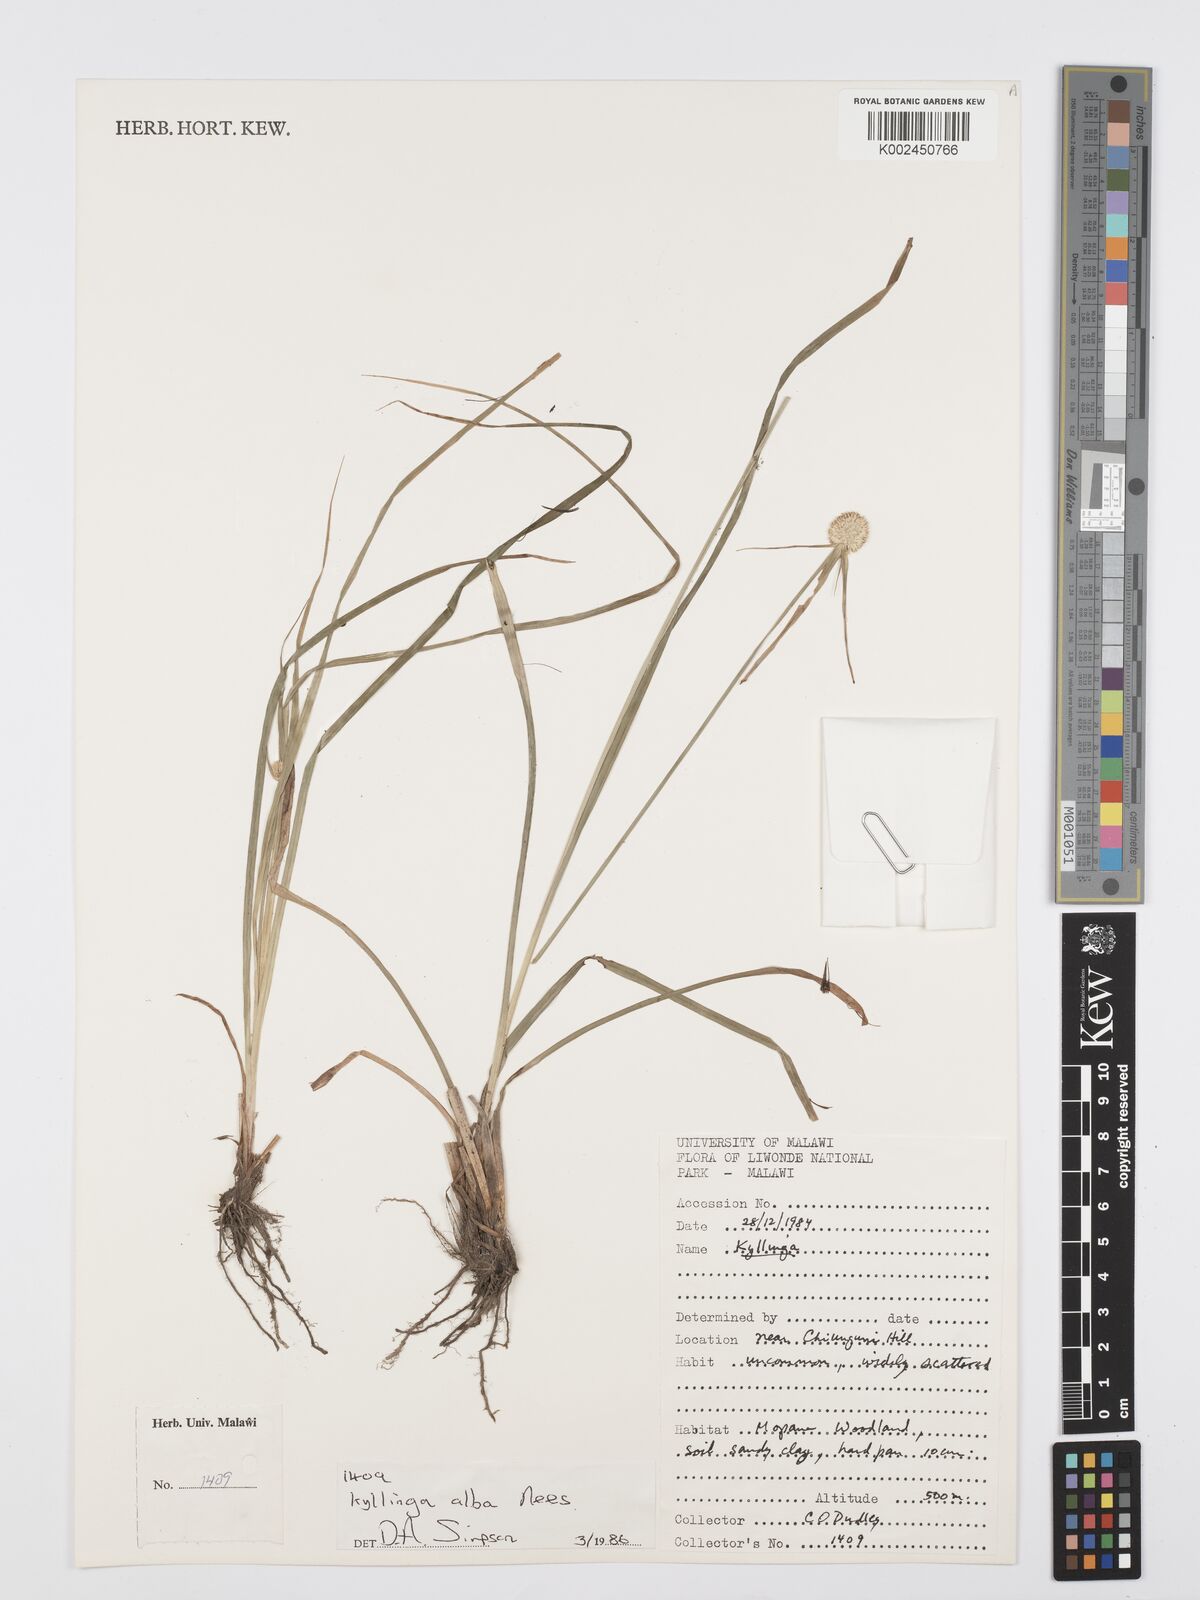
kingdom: Plantae
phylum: Tracheophyta
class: Liliopsida
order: Poales
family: Cyperaceae
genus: Cyperus
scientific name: Cyperus rukwanus
